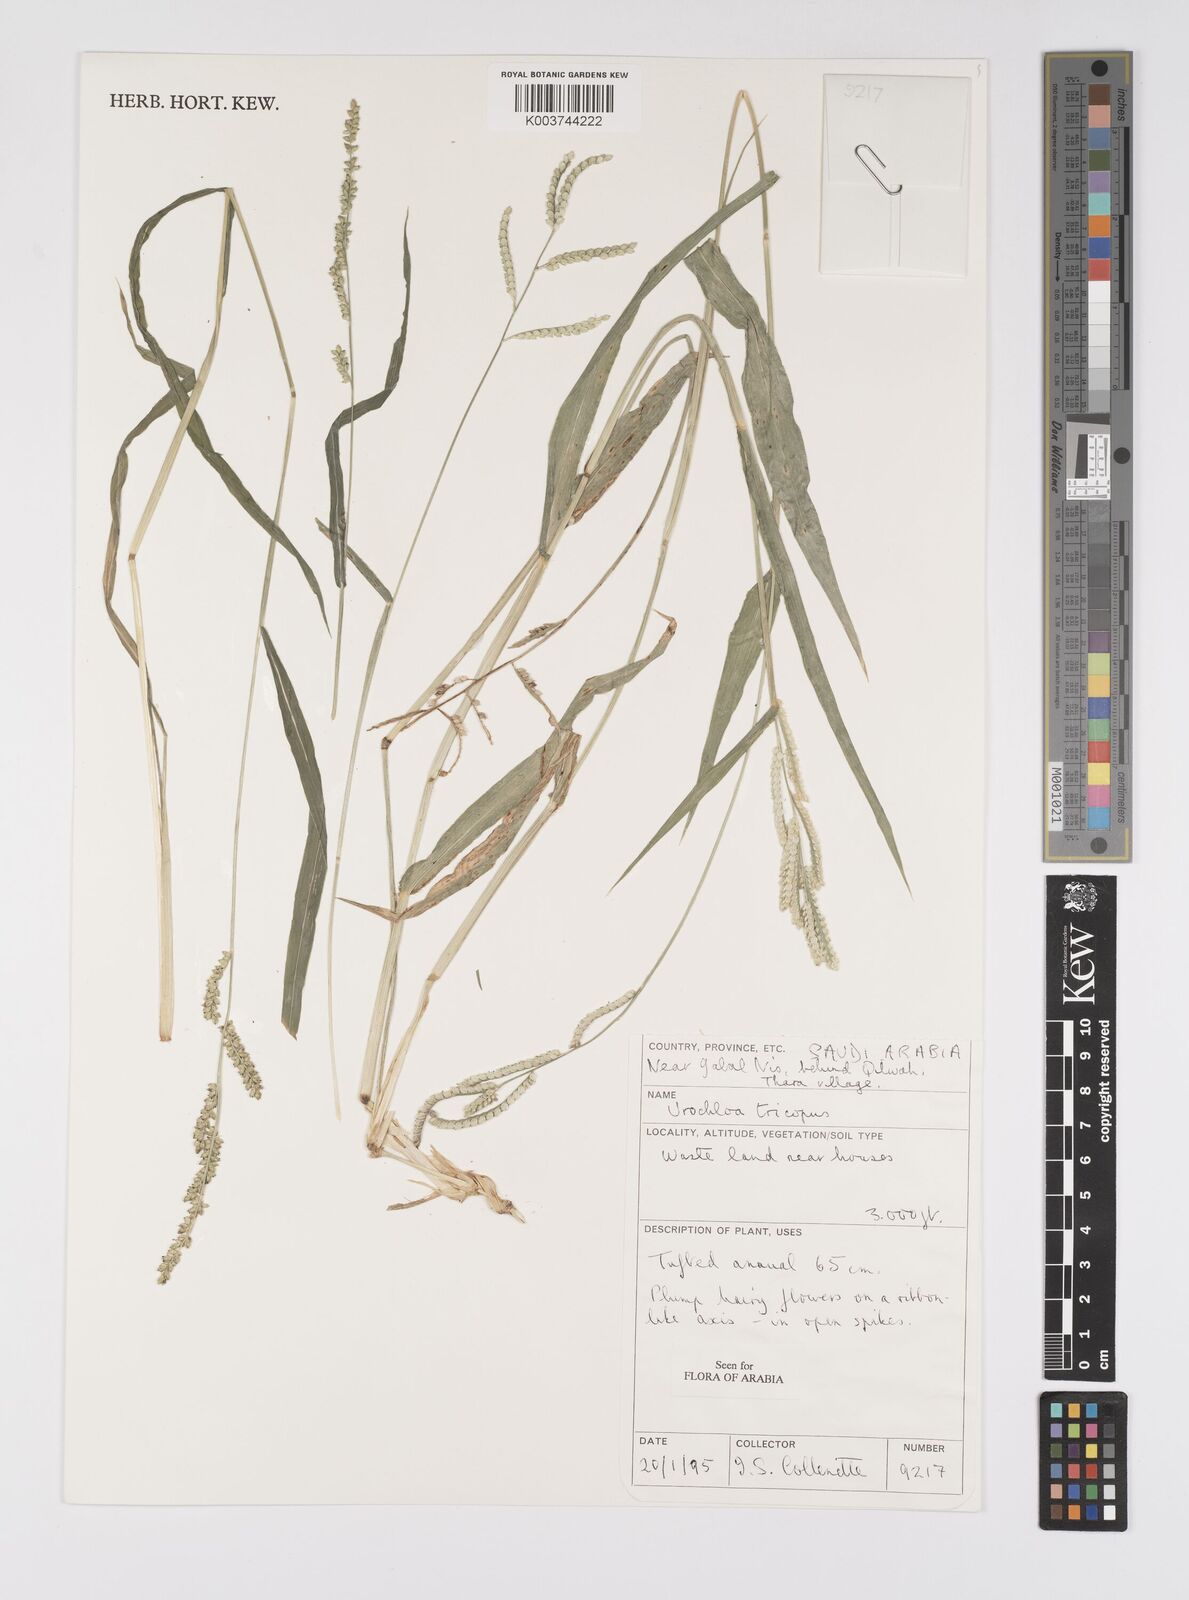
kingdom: Plantae
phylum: Tracheophyta
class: Liliopsida
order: Poales
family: Poaceae
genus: Urochloa
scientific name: Urochloa trichopus
